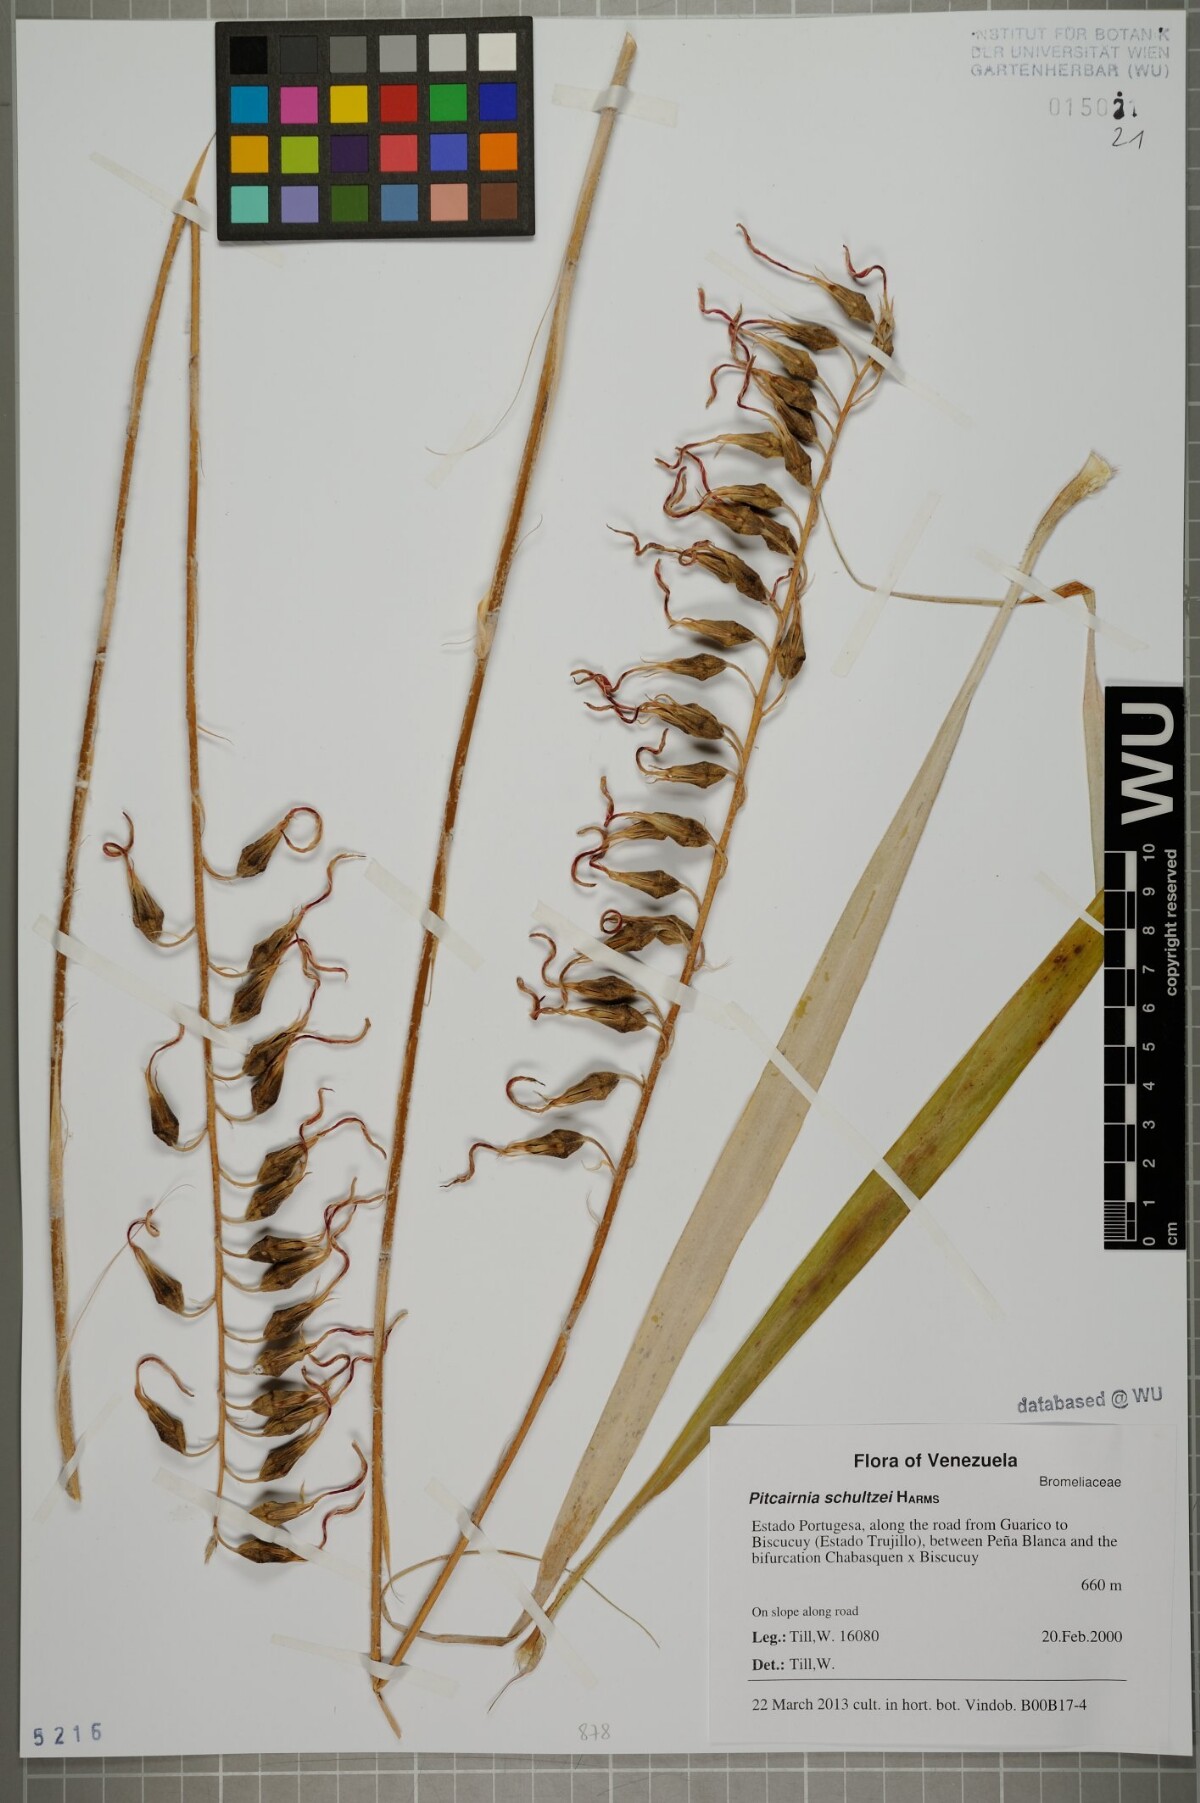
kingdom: Plantae
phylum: Tracheophyta
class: Liliopsida
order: Poales
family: Bromeliaceae
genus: Pitcairnia
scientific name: Pitcairnia schultzei
